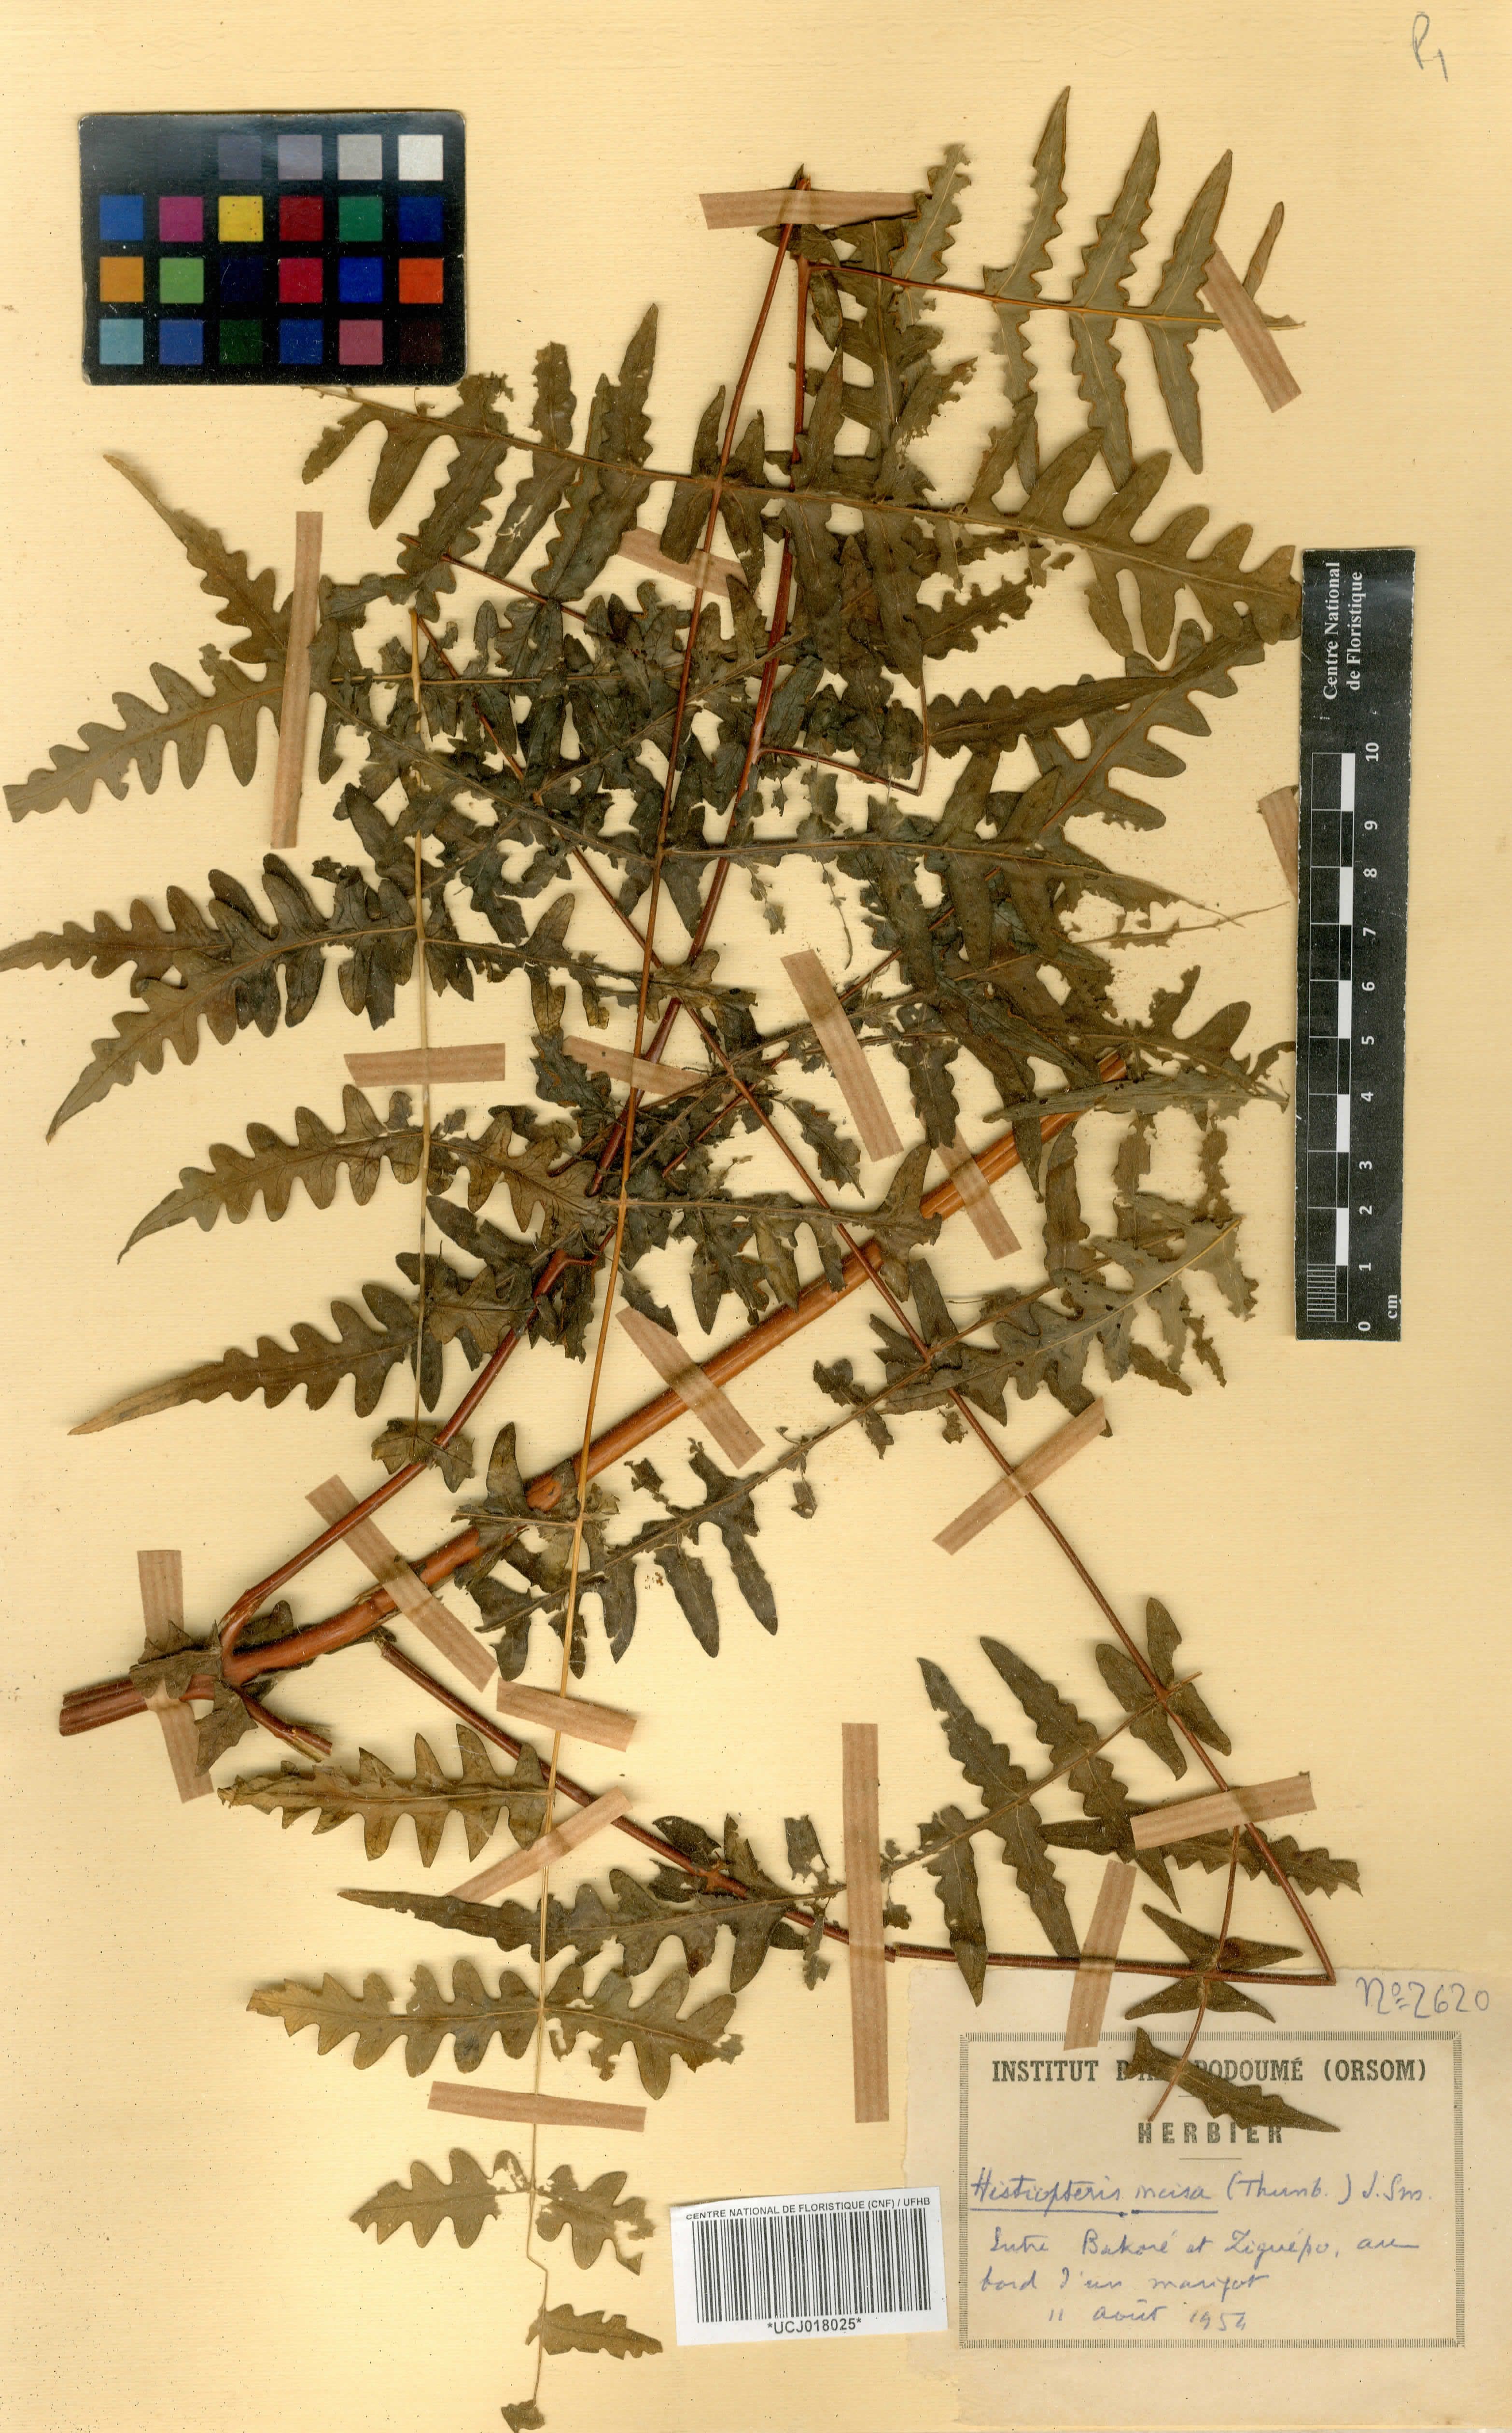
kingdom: Plantae
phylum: Tracheophyta
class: Polypodiopsida
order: Polypodiales
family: Dennstaedtiaceae
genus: Histiopteris
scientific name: Histiopteris incisa
